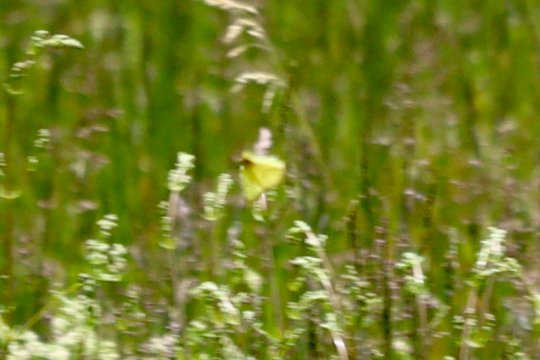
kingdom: Animalia
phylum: Arthropoda
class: Insecta
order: Lepidoptera
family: Pieridae
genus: Colias
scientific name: Colias philodice
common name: Clouded Sulphur
